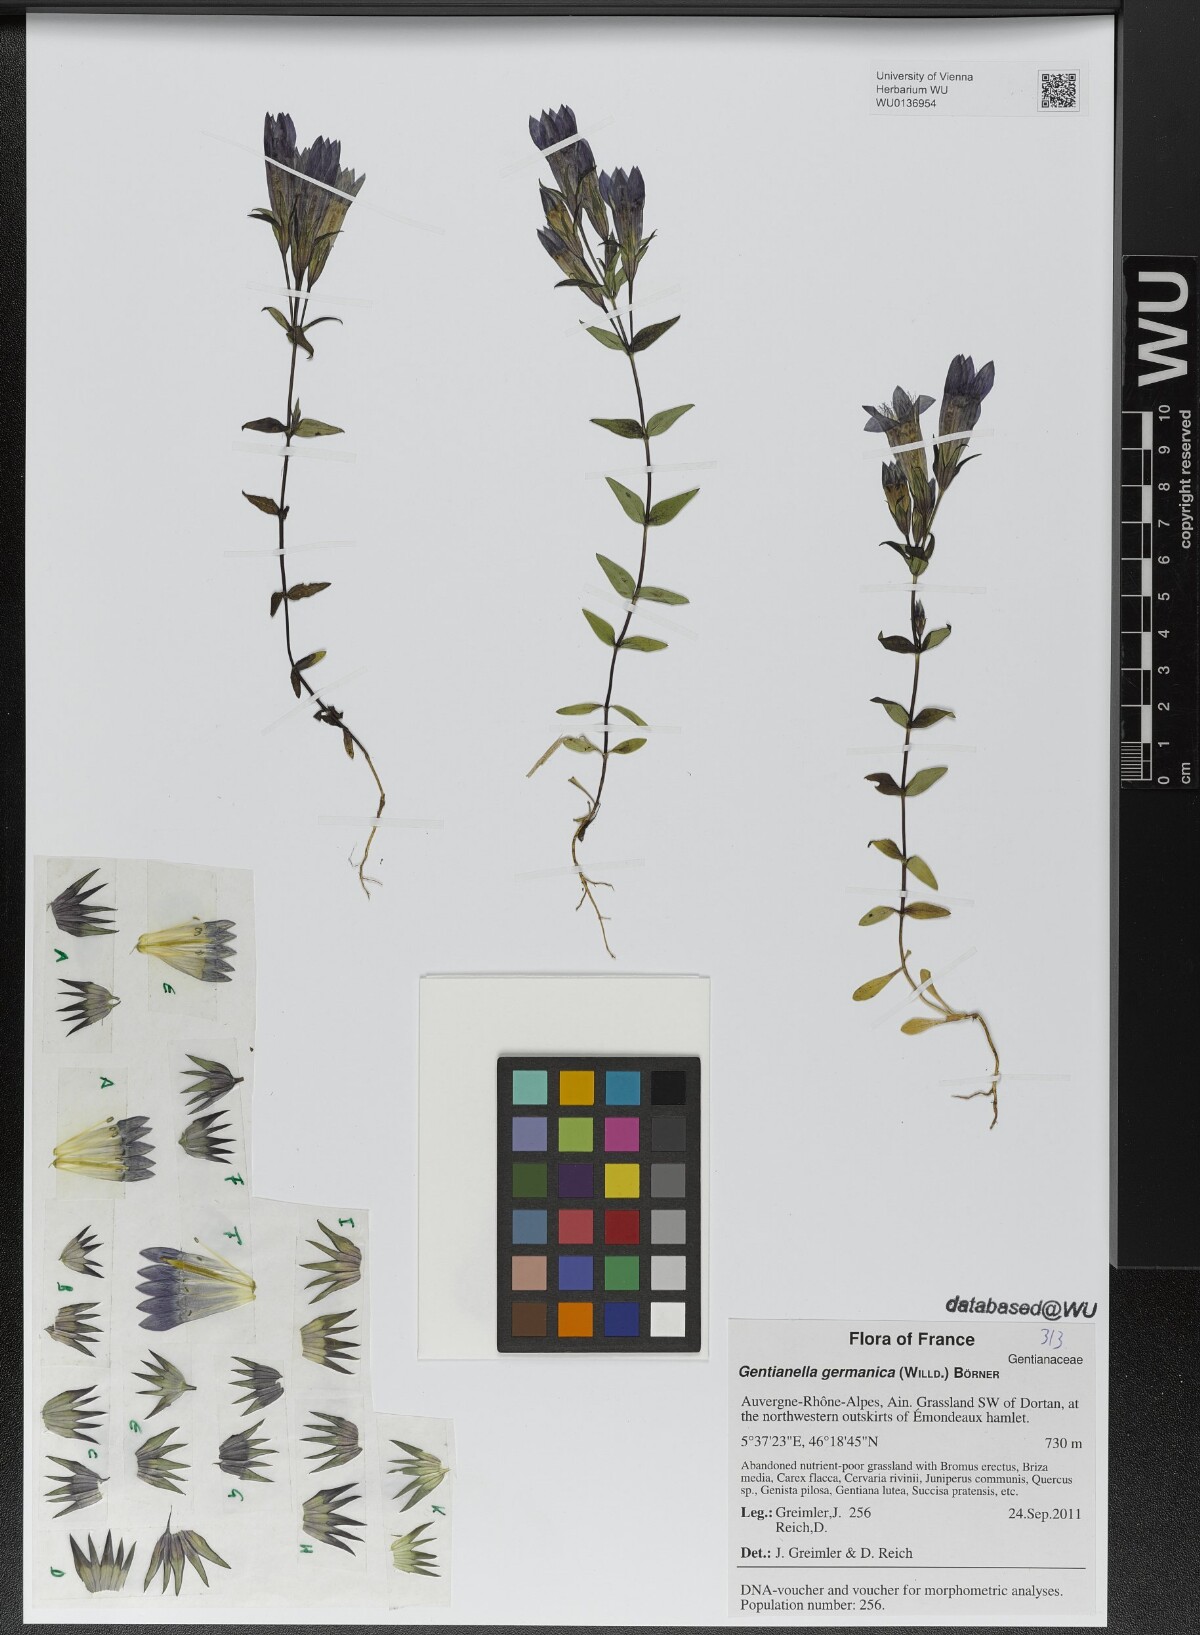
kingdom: Plantae
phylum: Tracheophyta
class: Magnoliopsida
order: Gentianales
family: Gentianaceae
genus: Gentianella
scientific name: Gentianella germanica
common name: Chiltern-gentian
